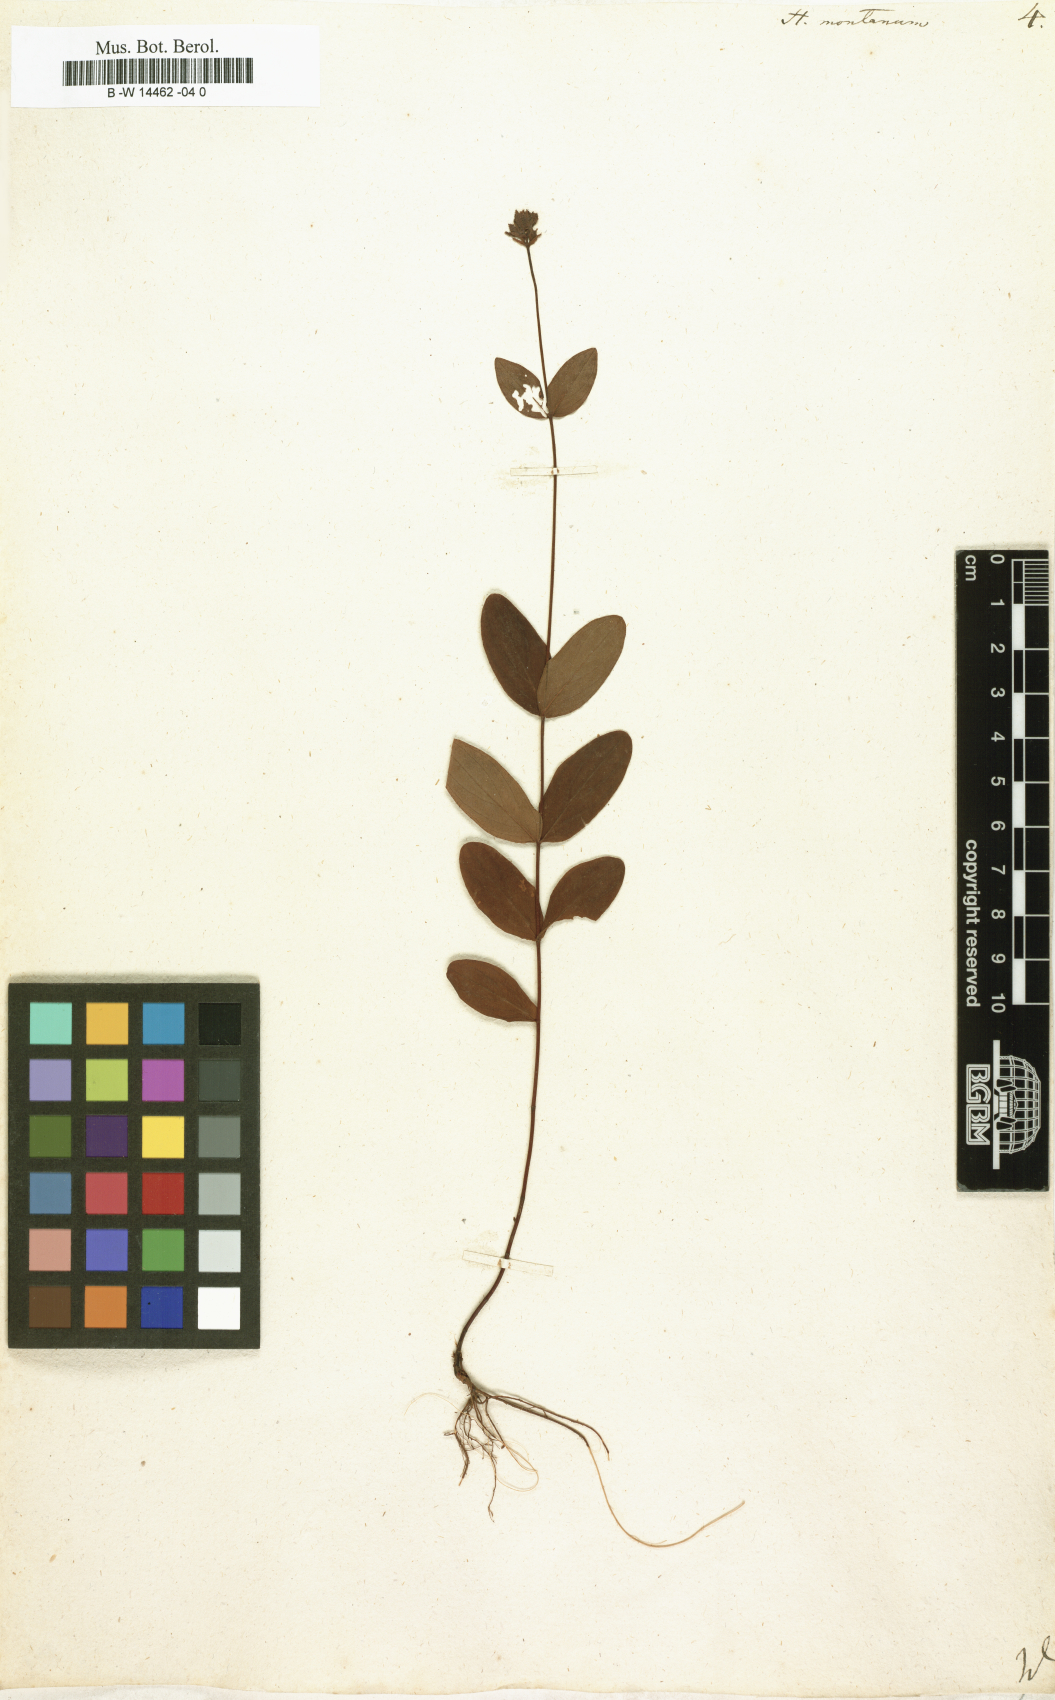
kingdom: Plantae
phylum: Tracheophyta
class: Magnoliopsida
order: Malpighiales
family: Hypericaceae
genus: Hypericum
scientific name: Hypericum montanum
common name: Pale st. john's-wort
